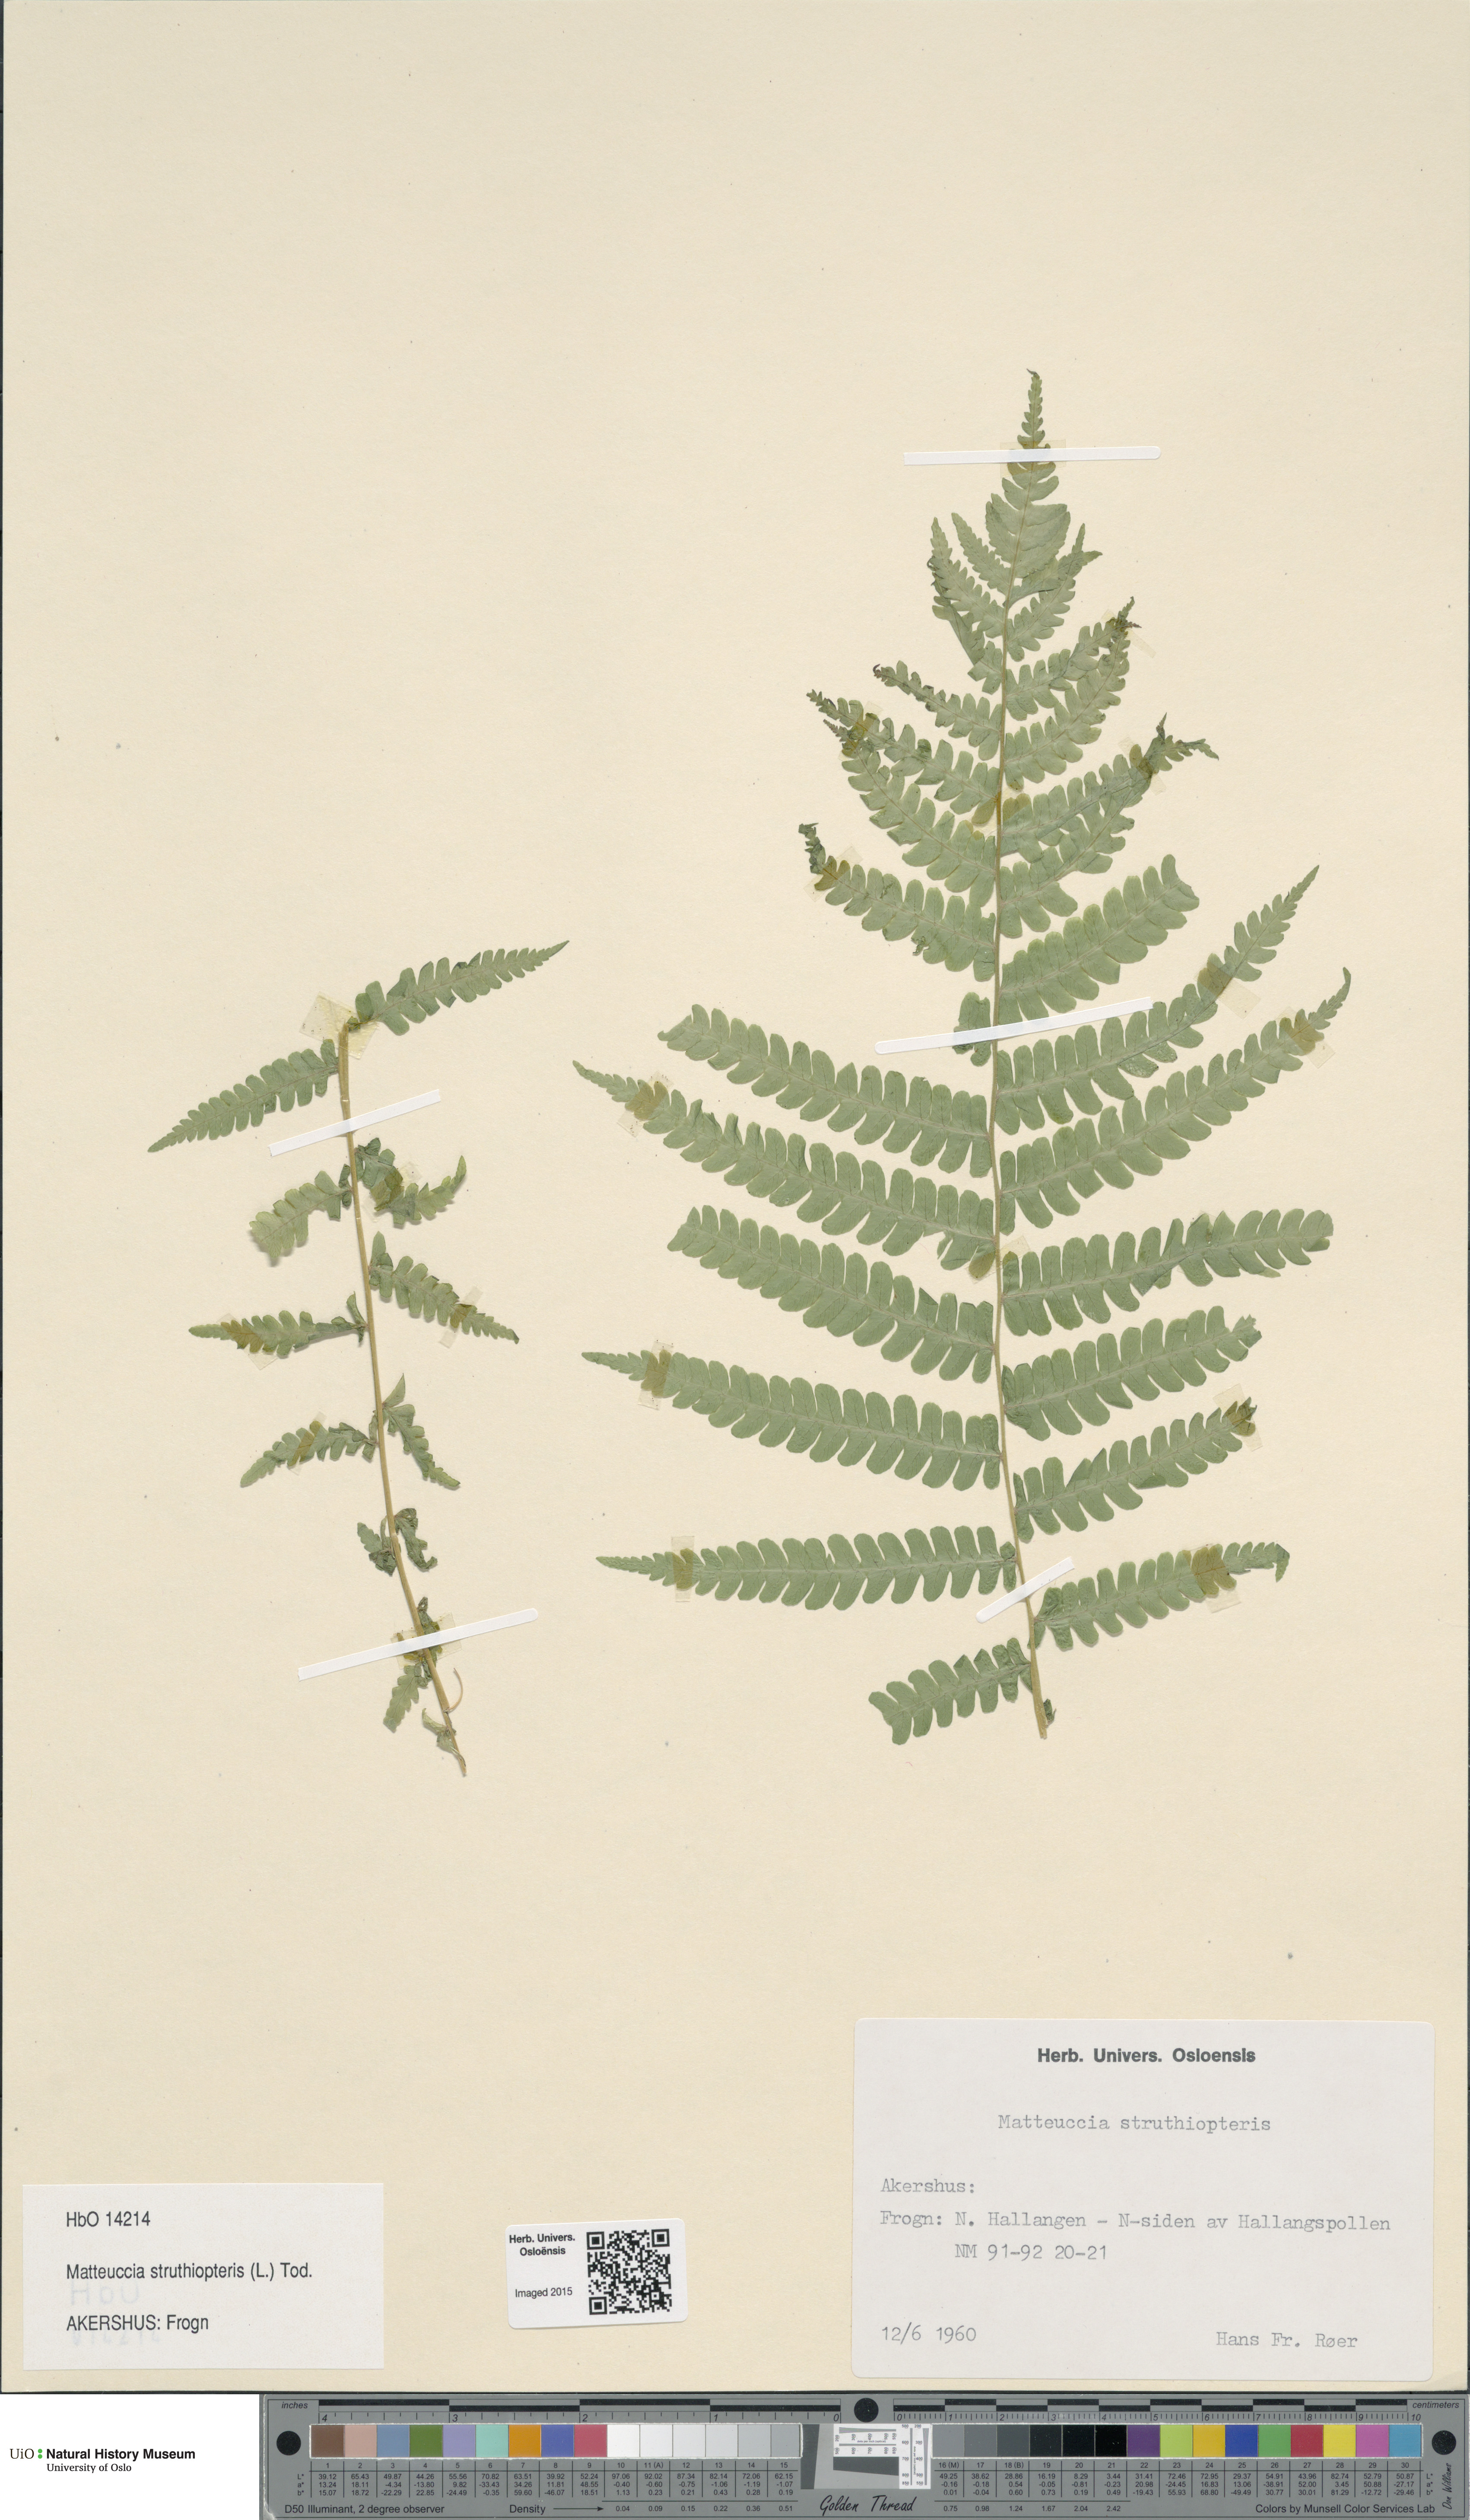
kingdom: Plantae
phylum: Tracheophyta
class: Polypodiopsida
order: Polypodiales
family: Onocleaceae
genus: Matteuccia
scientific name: Matteuccia struthiopteris
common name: Ostrich fern
